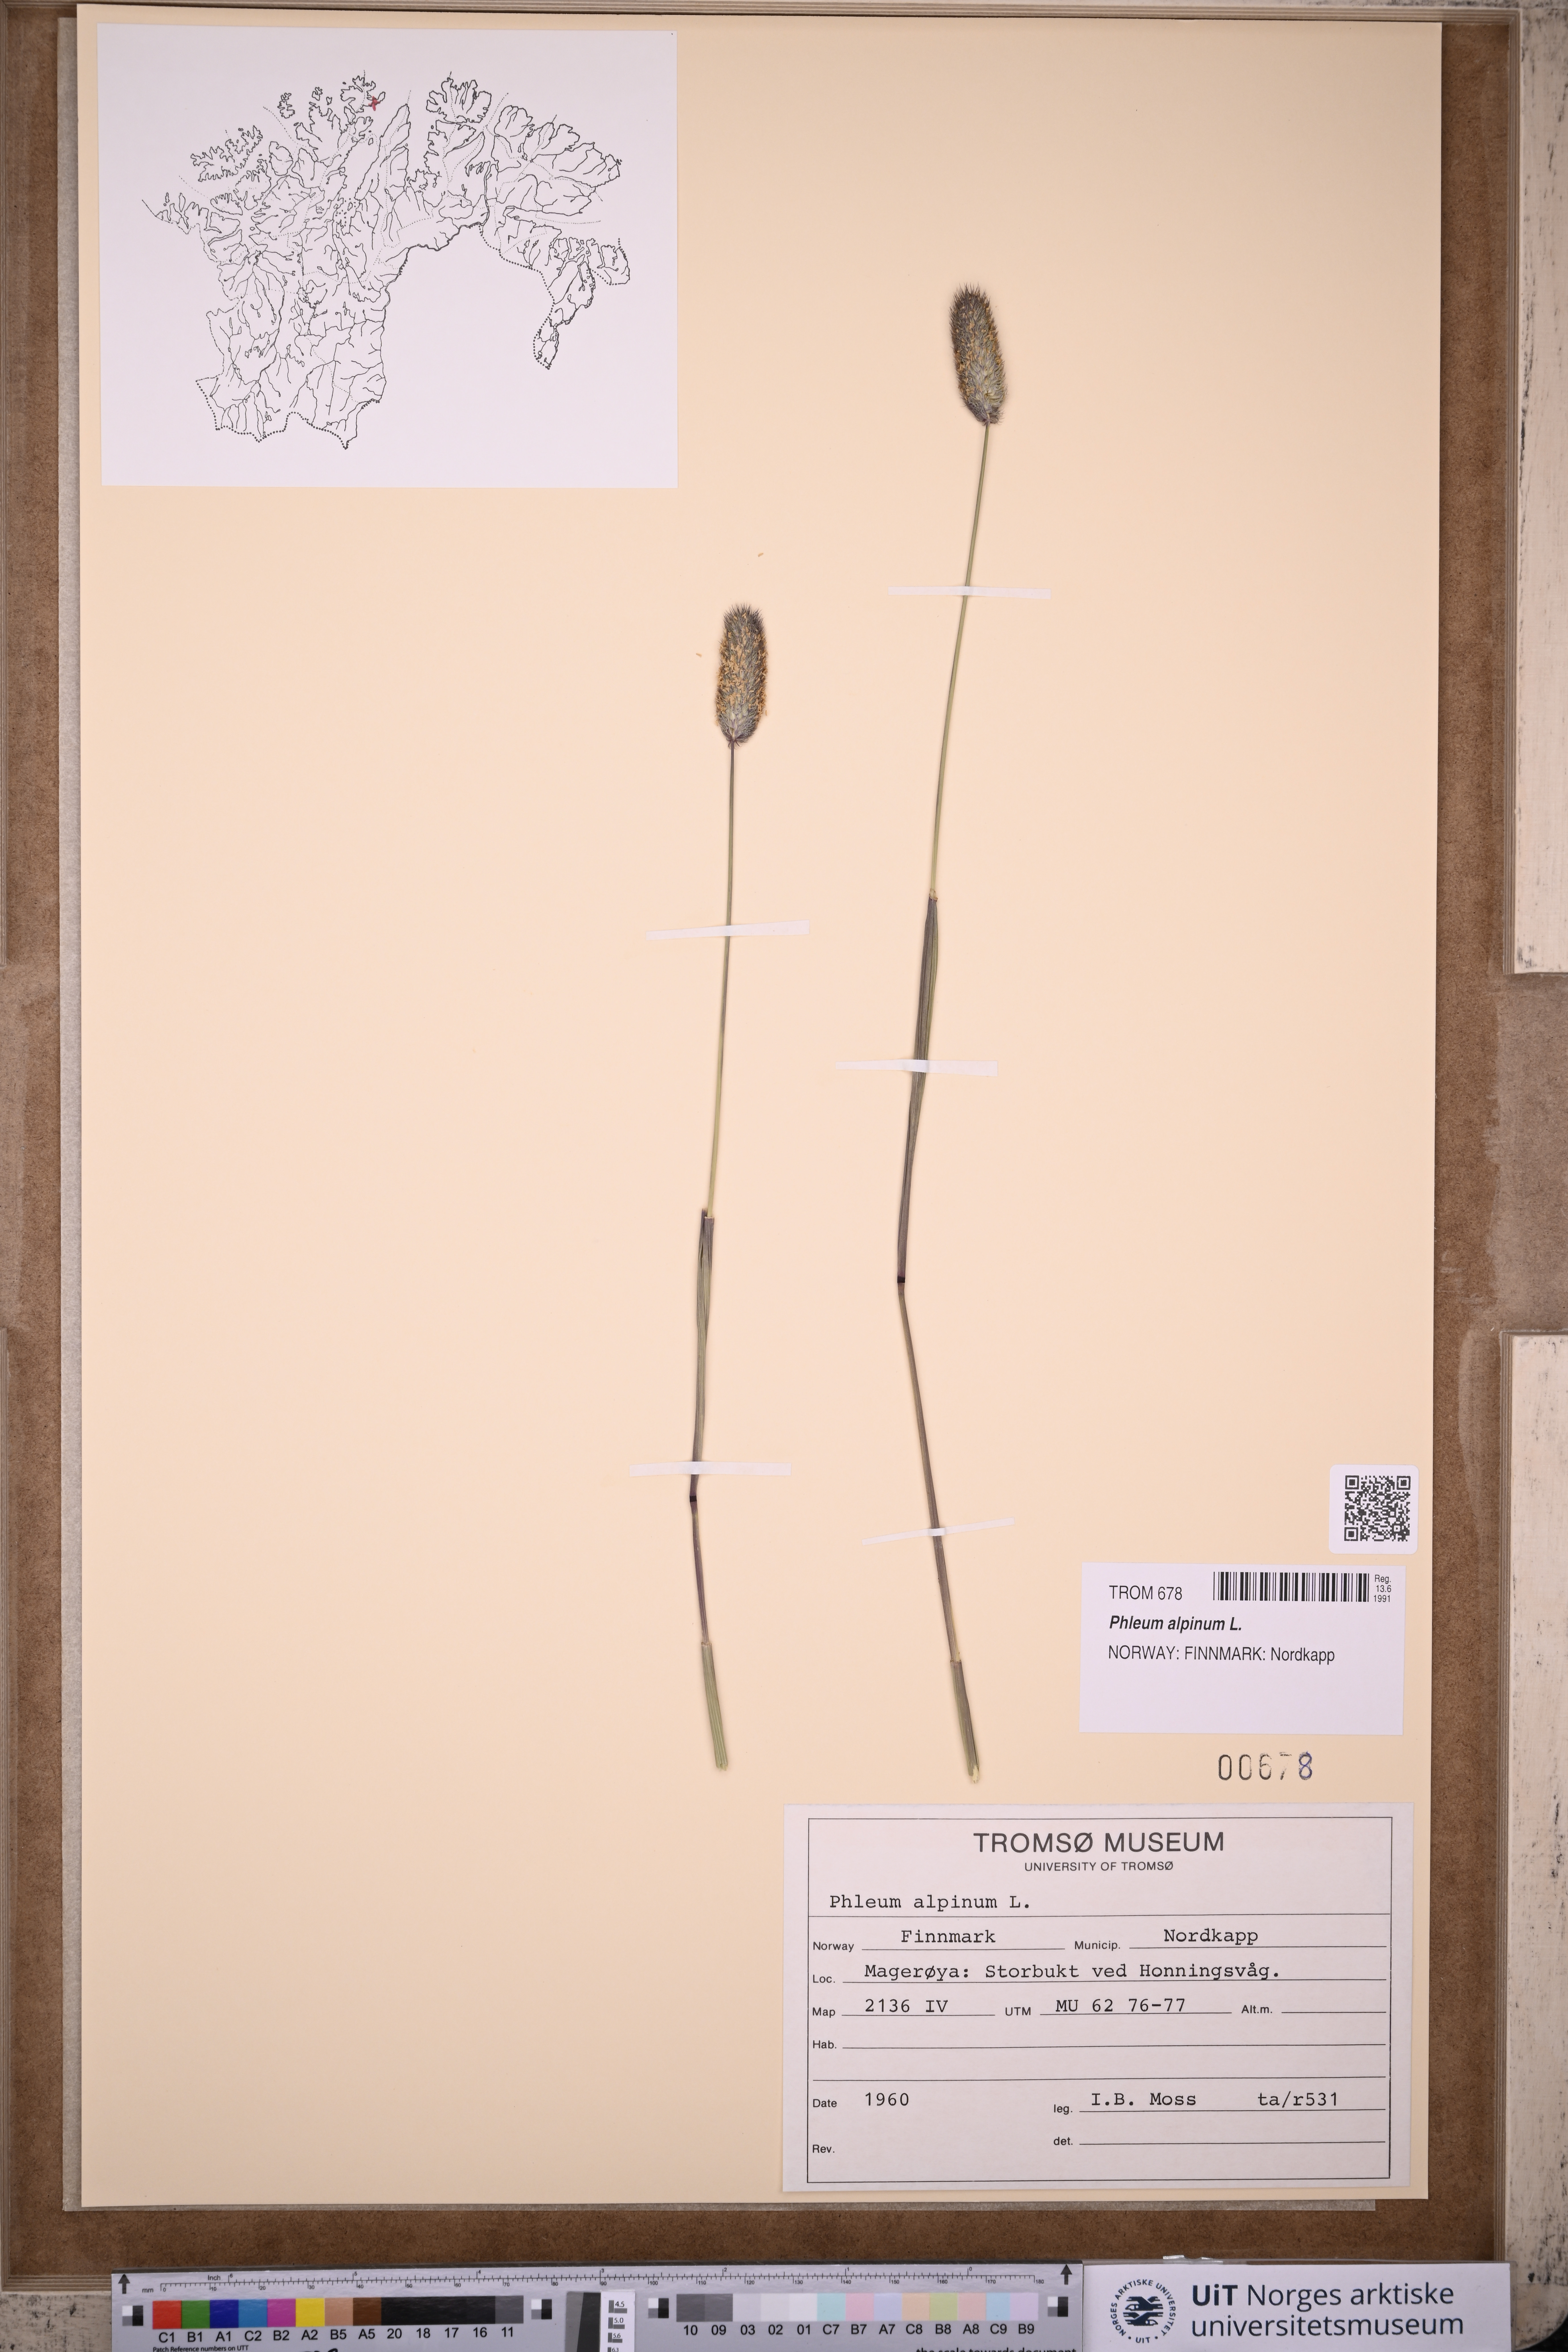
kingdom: Plantae
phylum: Tracheophyta
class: Liliopsida
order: Poales
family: Poaceae
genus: Phleum
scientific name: Phleum alpinum
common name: Alpine cat's-tail
